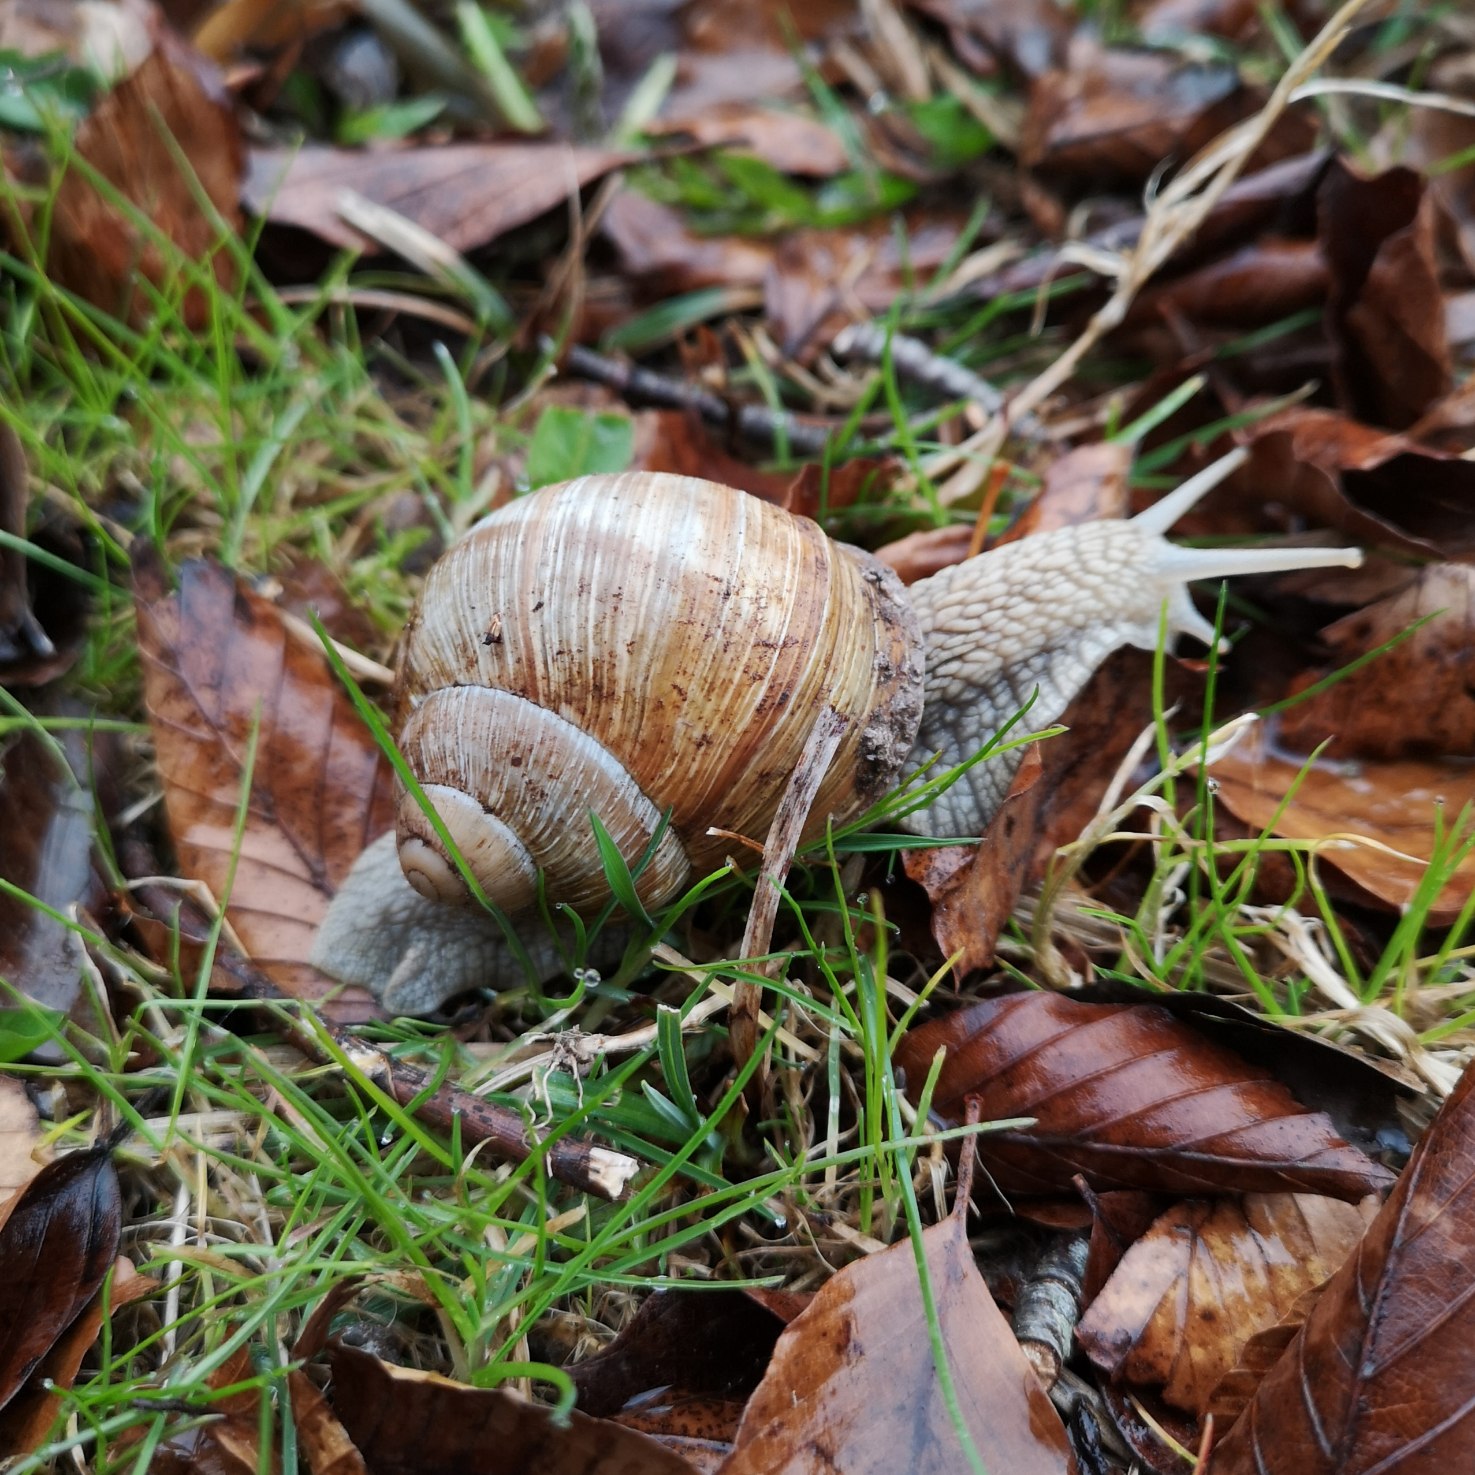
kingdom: Animalia
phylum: Mollusca
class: Gastropoda
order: Stylommatophora
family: Helicidae
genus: Helix
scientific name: Helix pomatia
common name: Vinbjergsnegl
